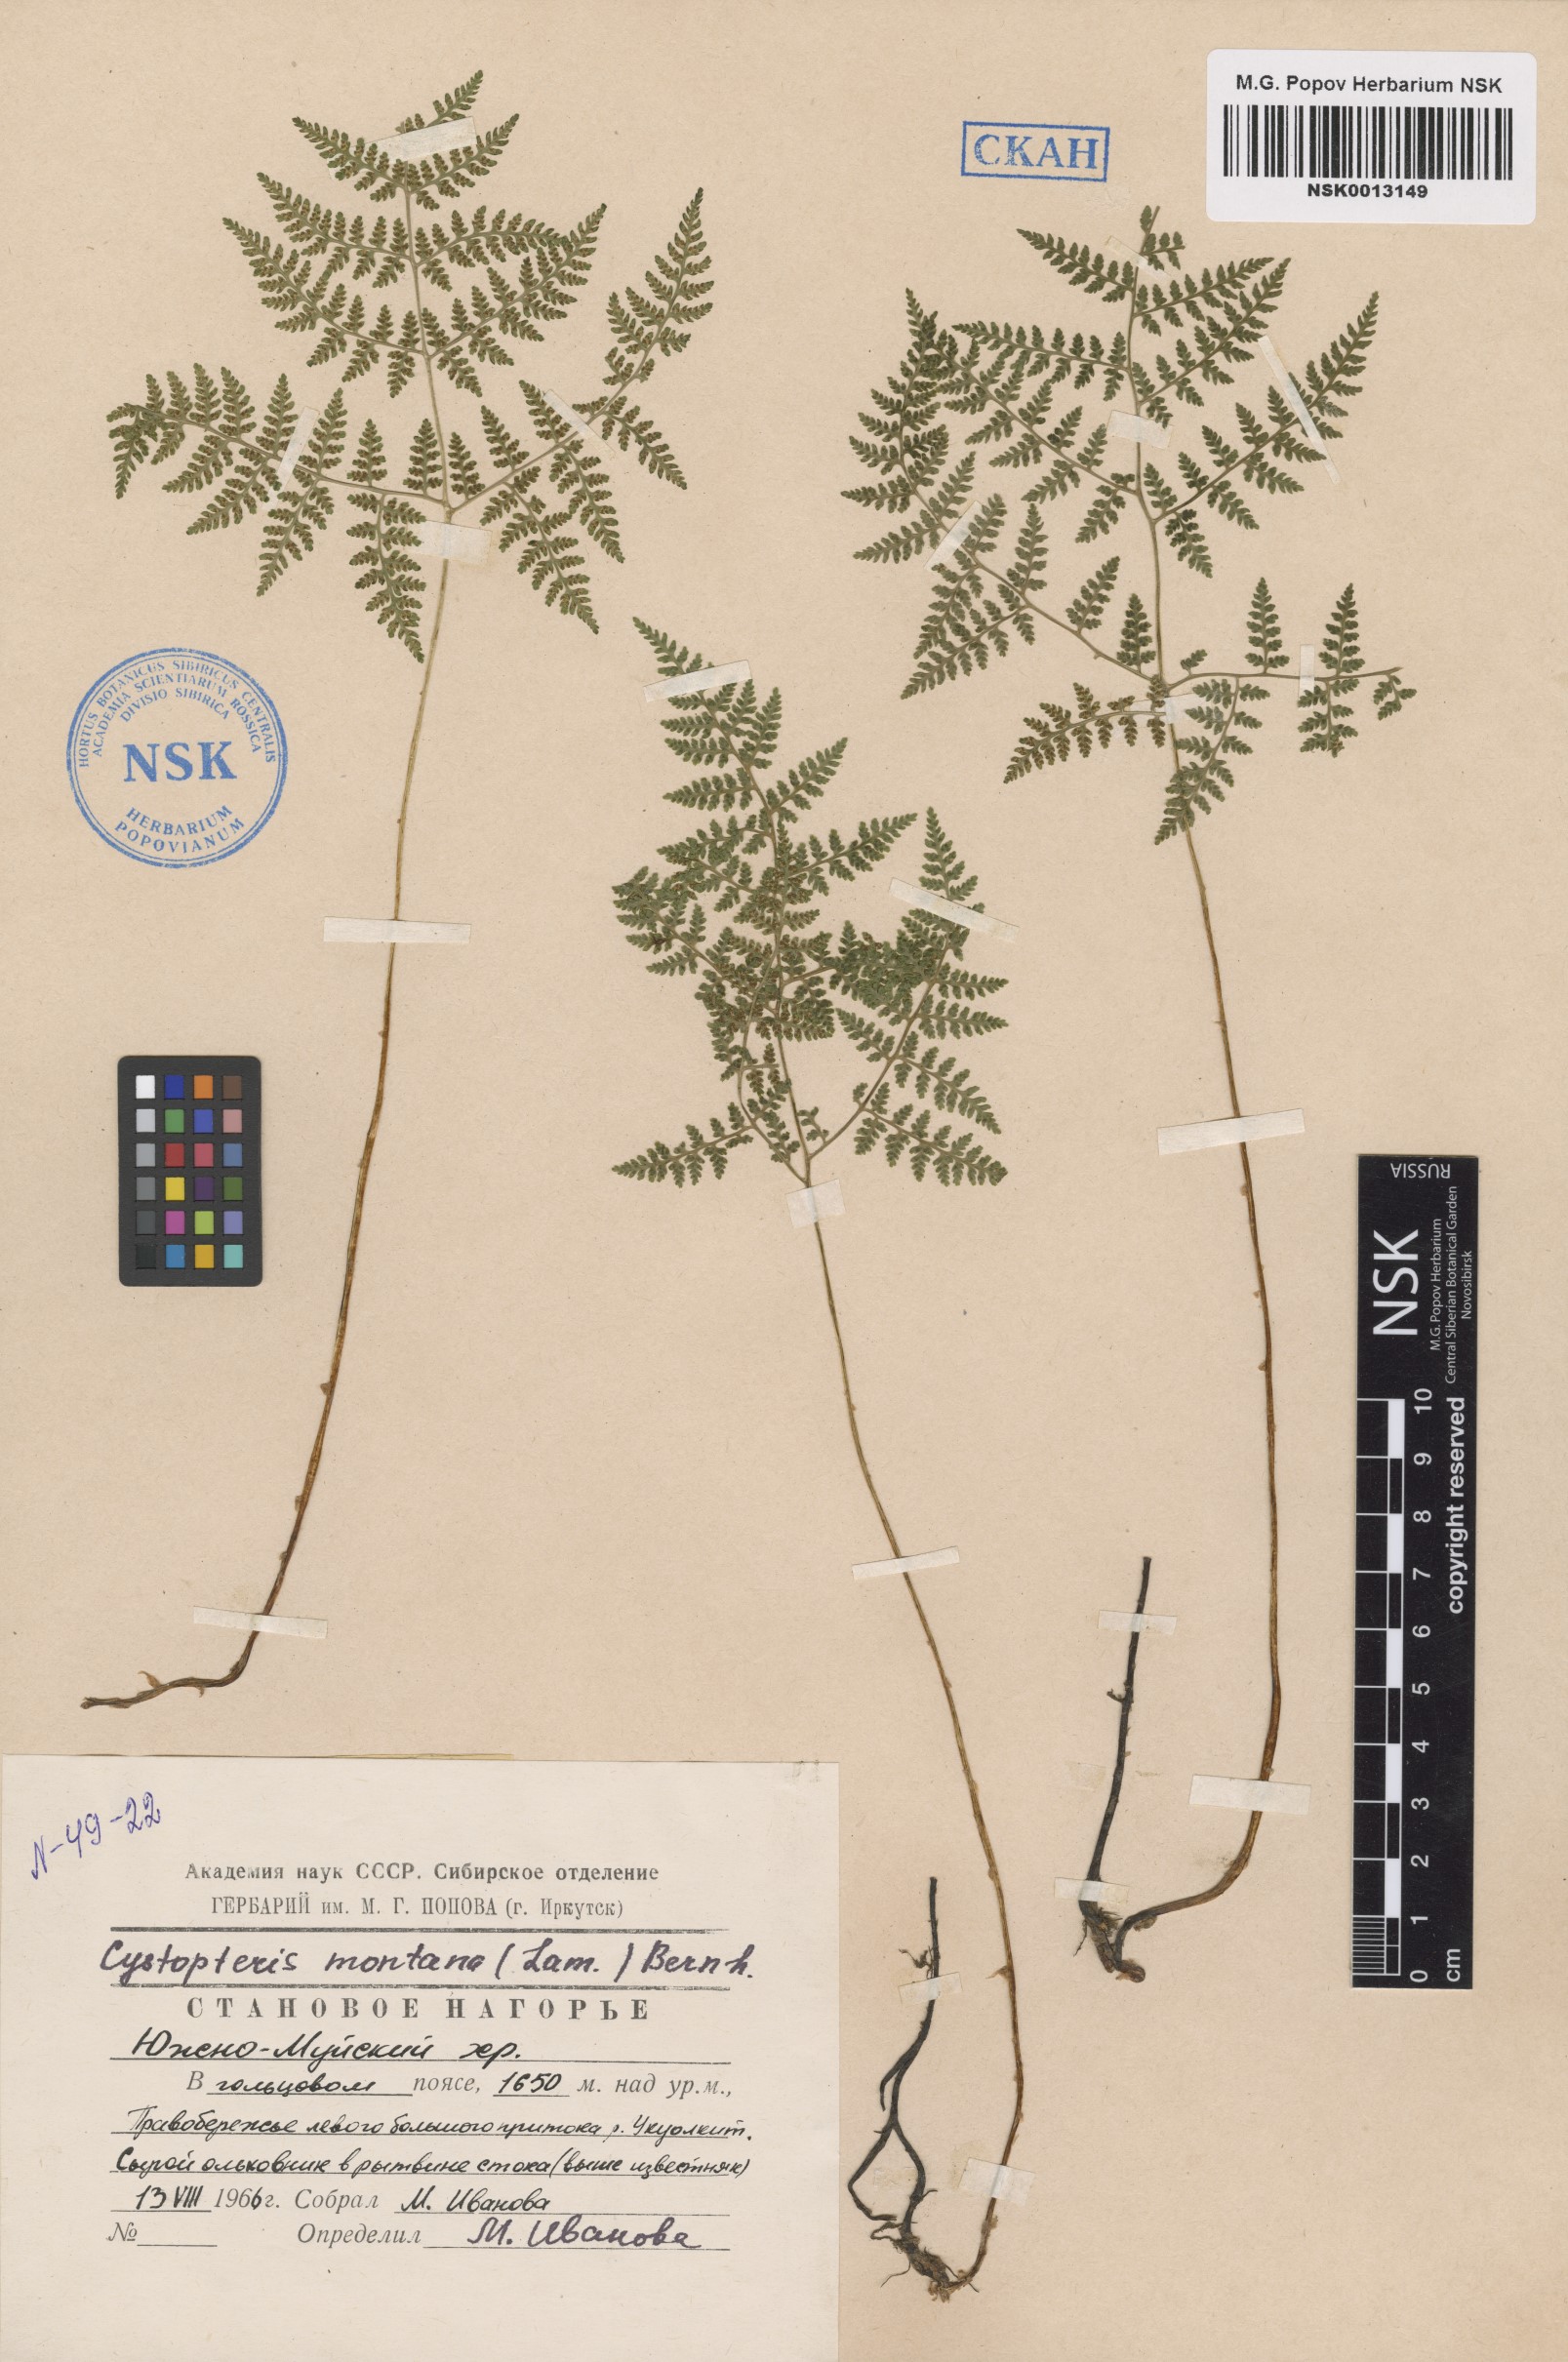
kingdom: Plantae
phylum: Tracheophyta
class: Polypodiopsida
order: Polypodiales
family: Cystopteridaceae
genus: Cystopteris
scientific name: Cystopteris montana
